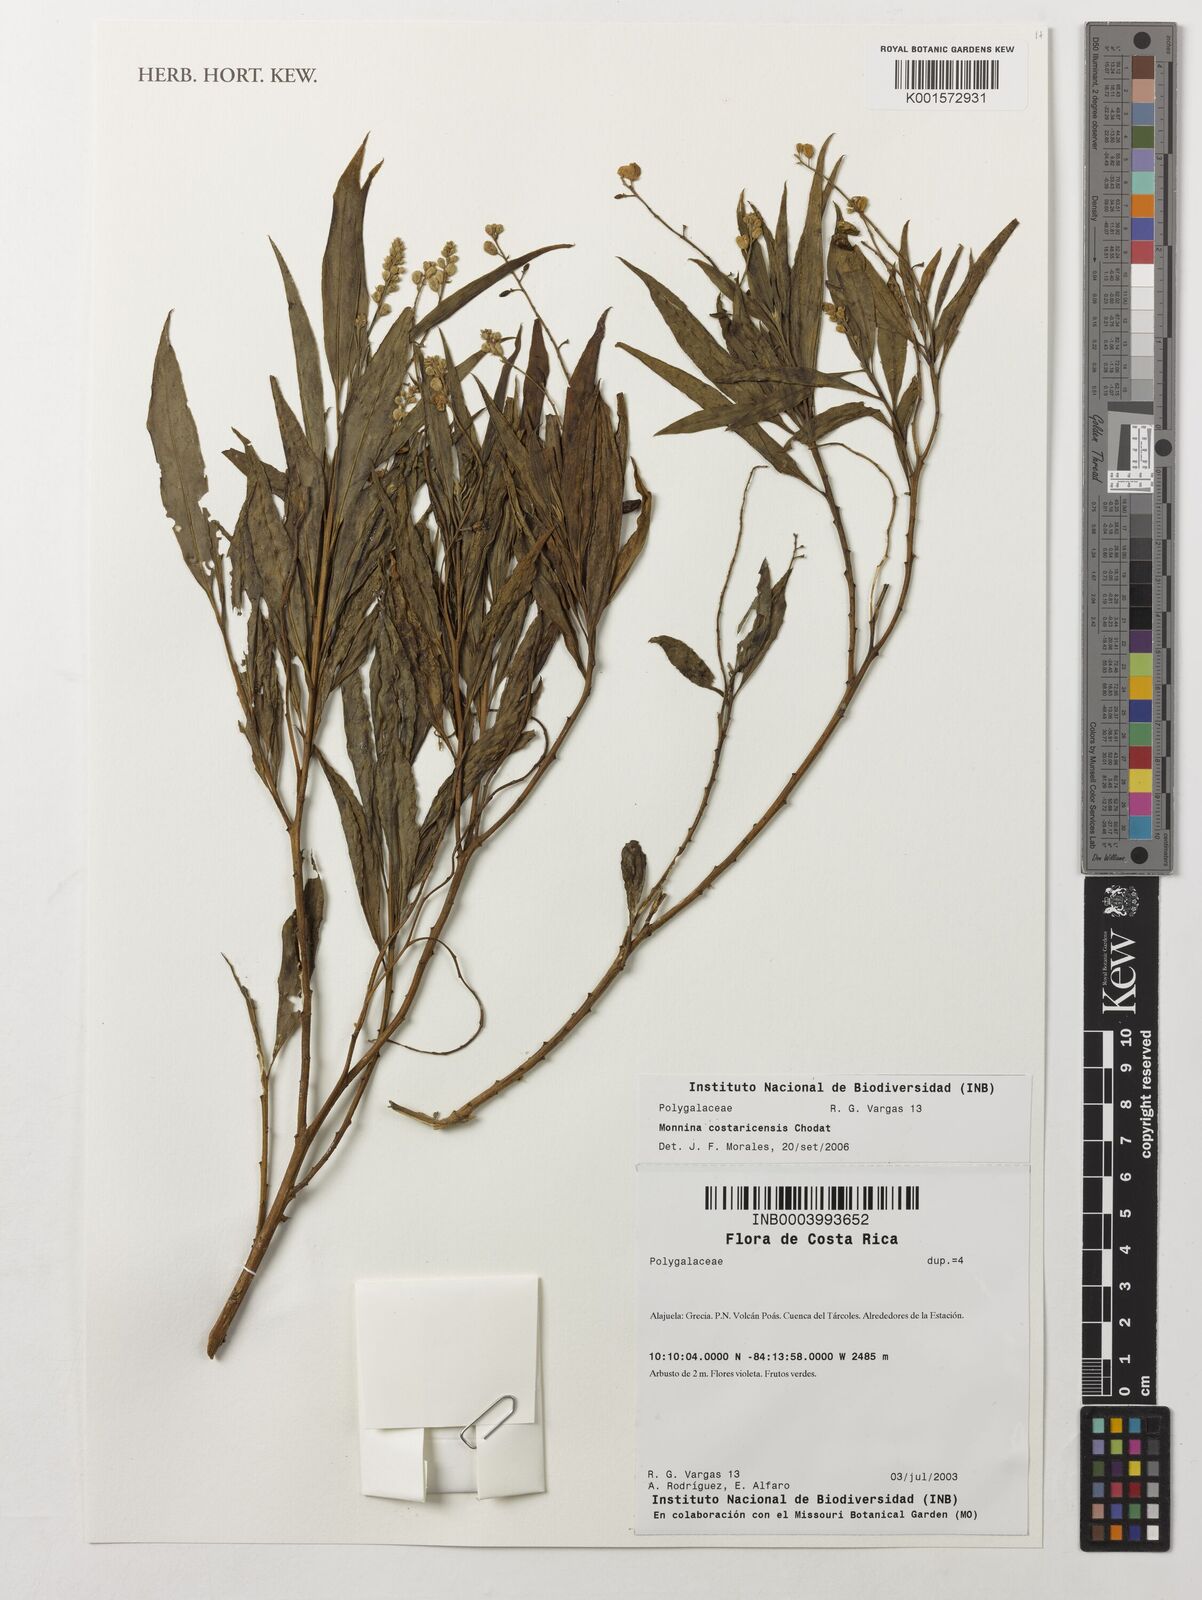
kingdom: Plantae
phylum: Tracheophyta
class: Magnoliopsida
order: Fabales
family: Polygalaceae
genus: Monnina
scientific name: Monnina costaricensis
